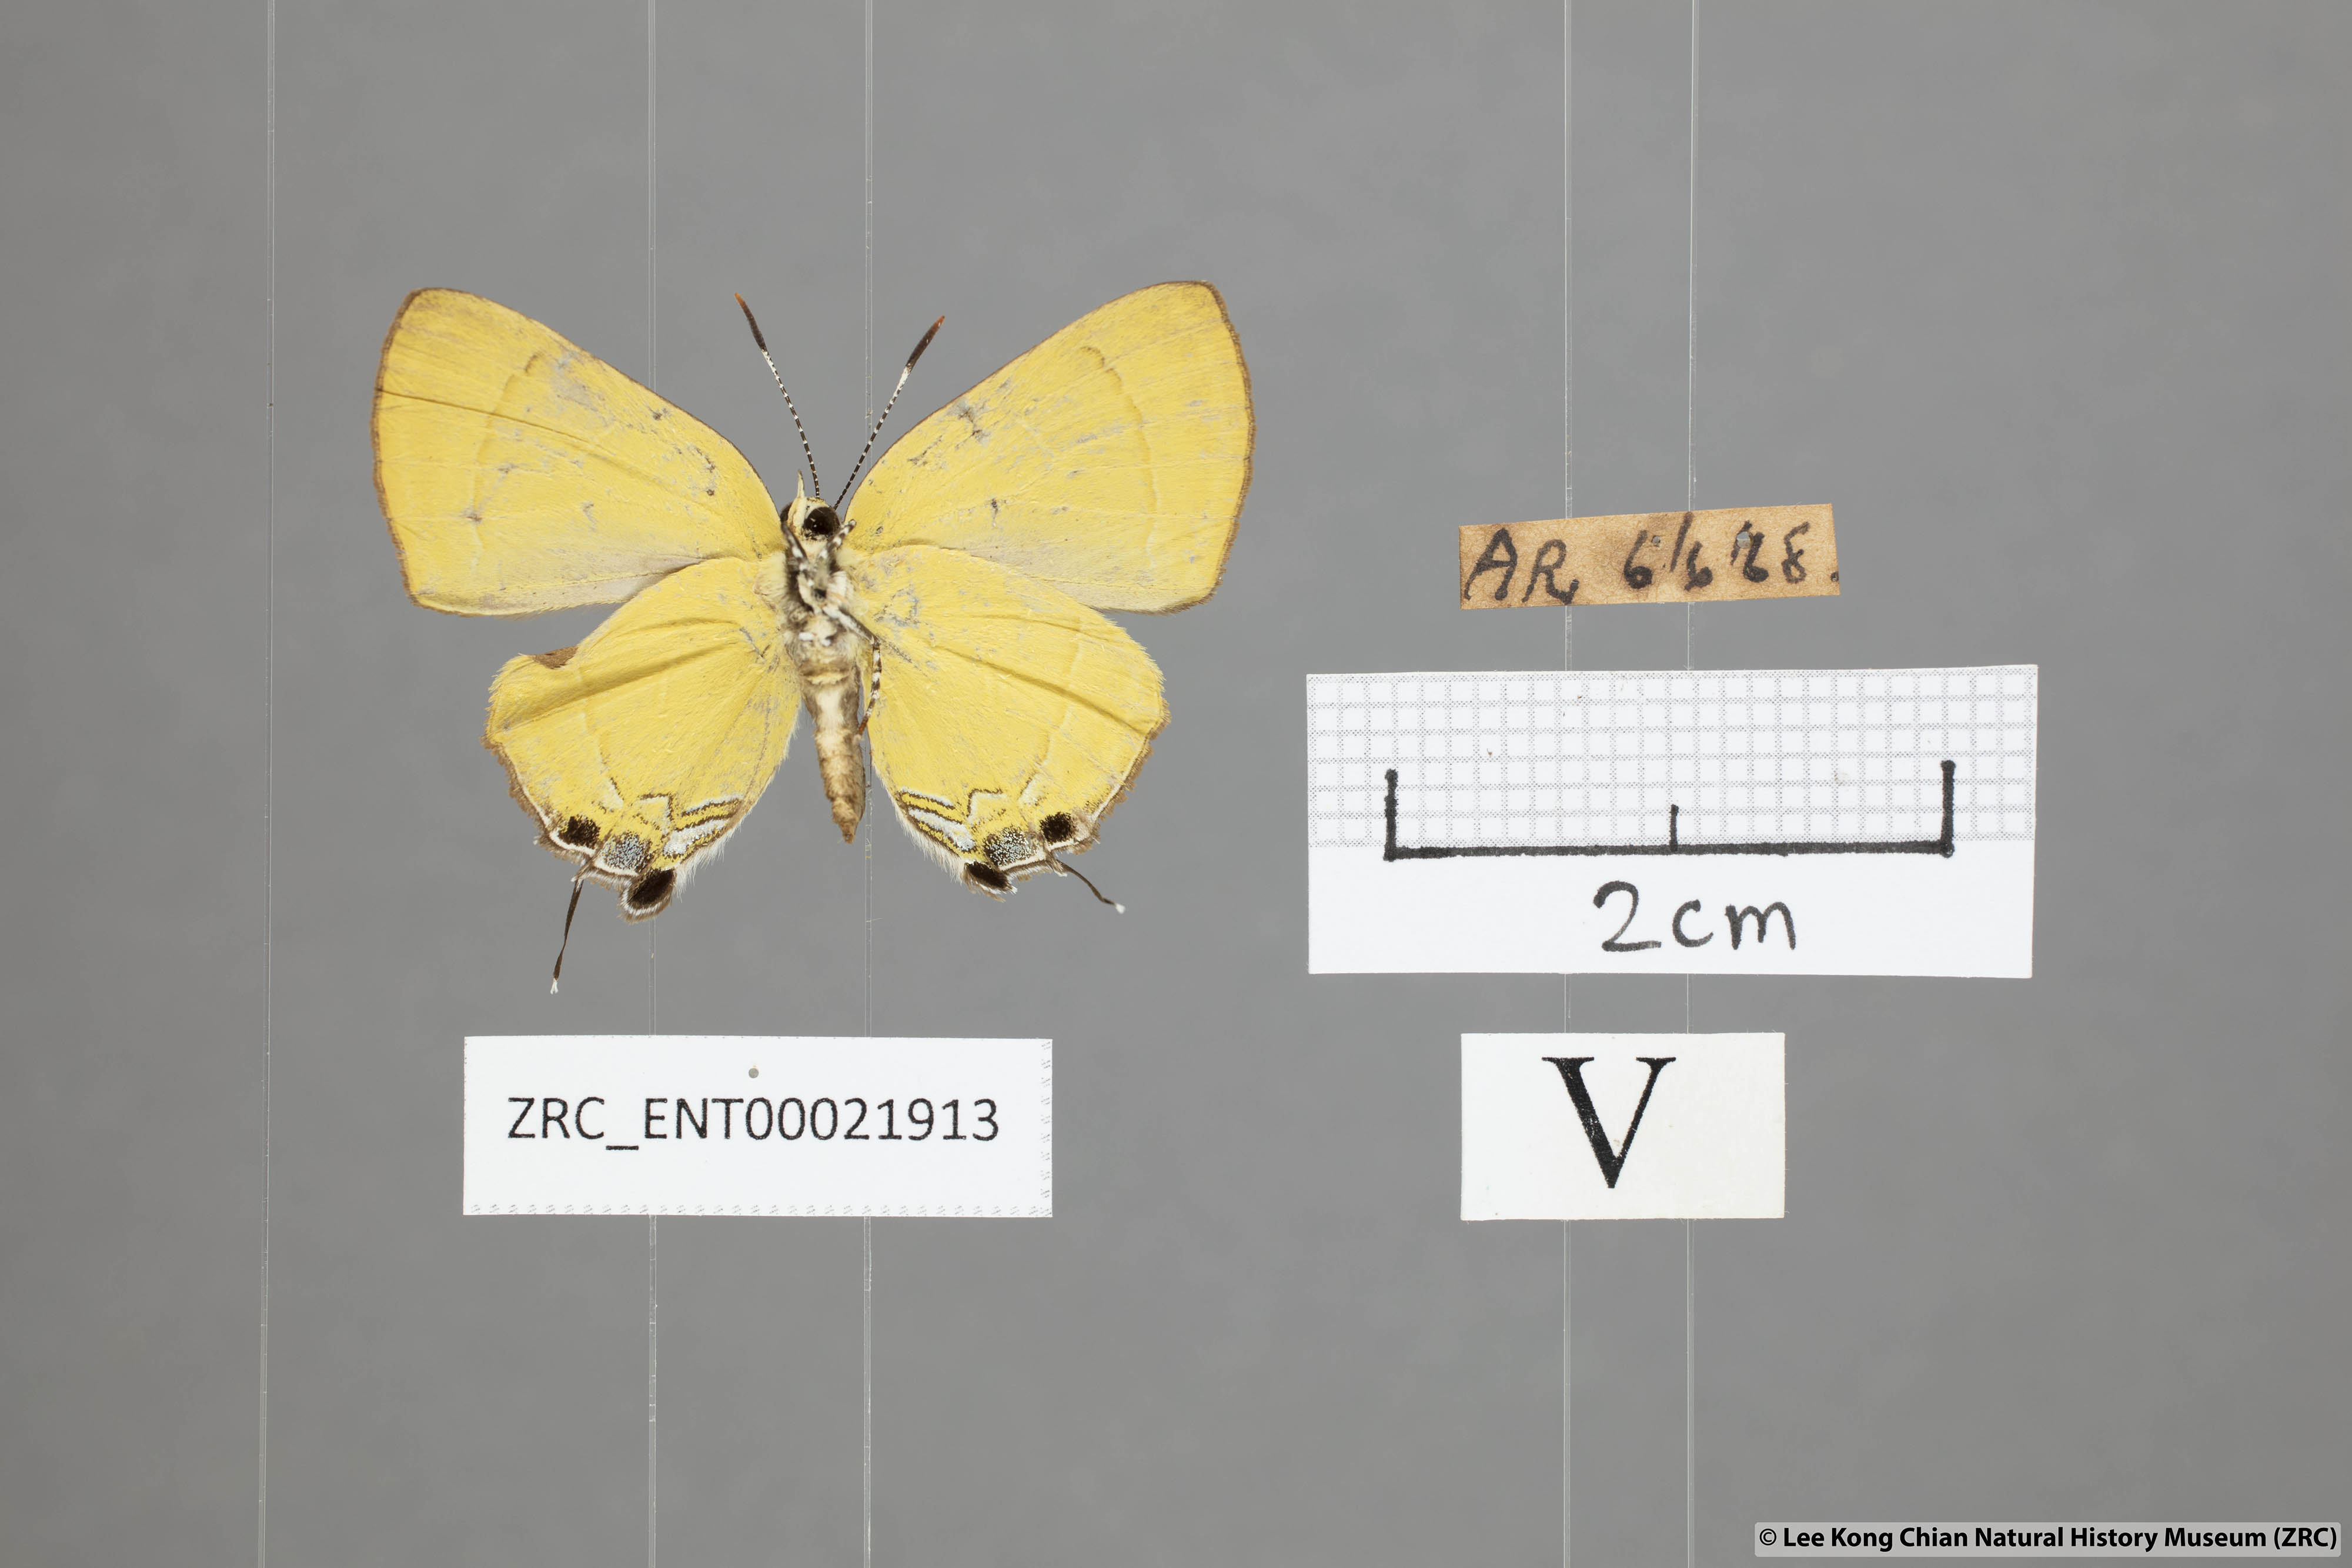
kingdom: Animalia
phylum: Arthropoda
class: Insecta
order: Lepidoptera
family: Lycaenidae
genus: Rapala
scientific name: Rapala suffusa
